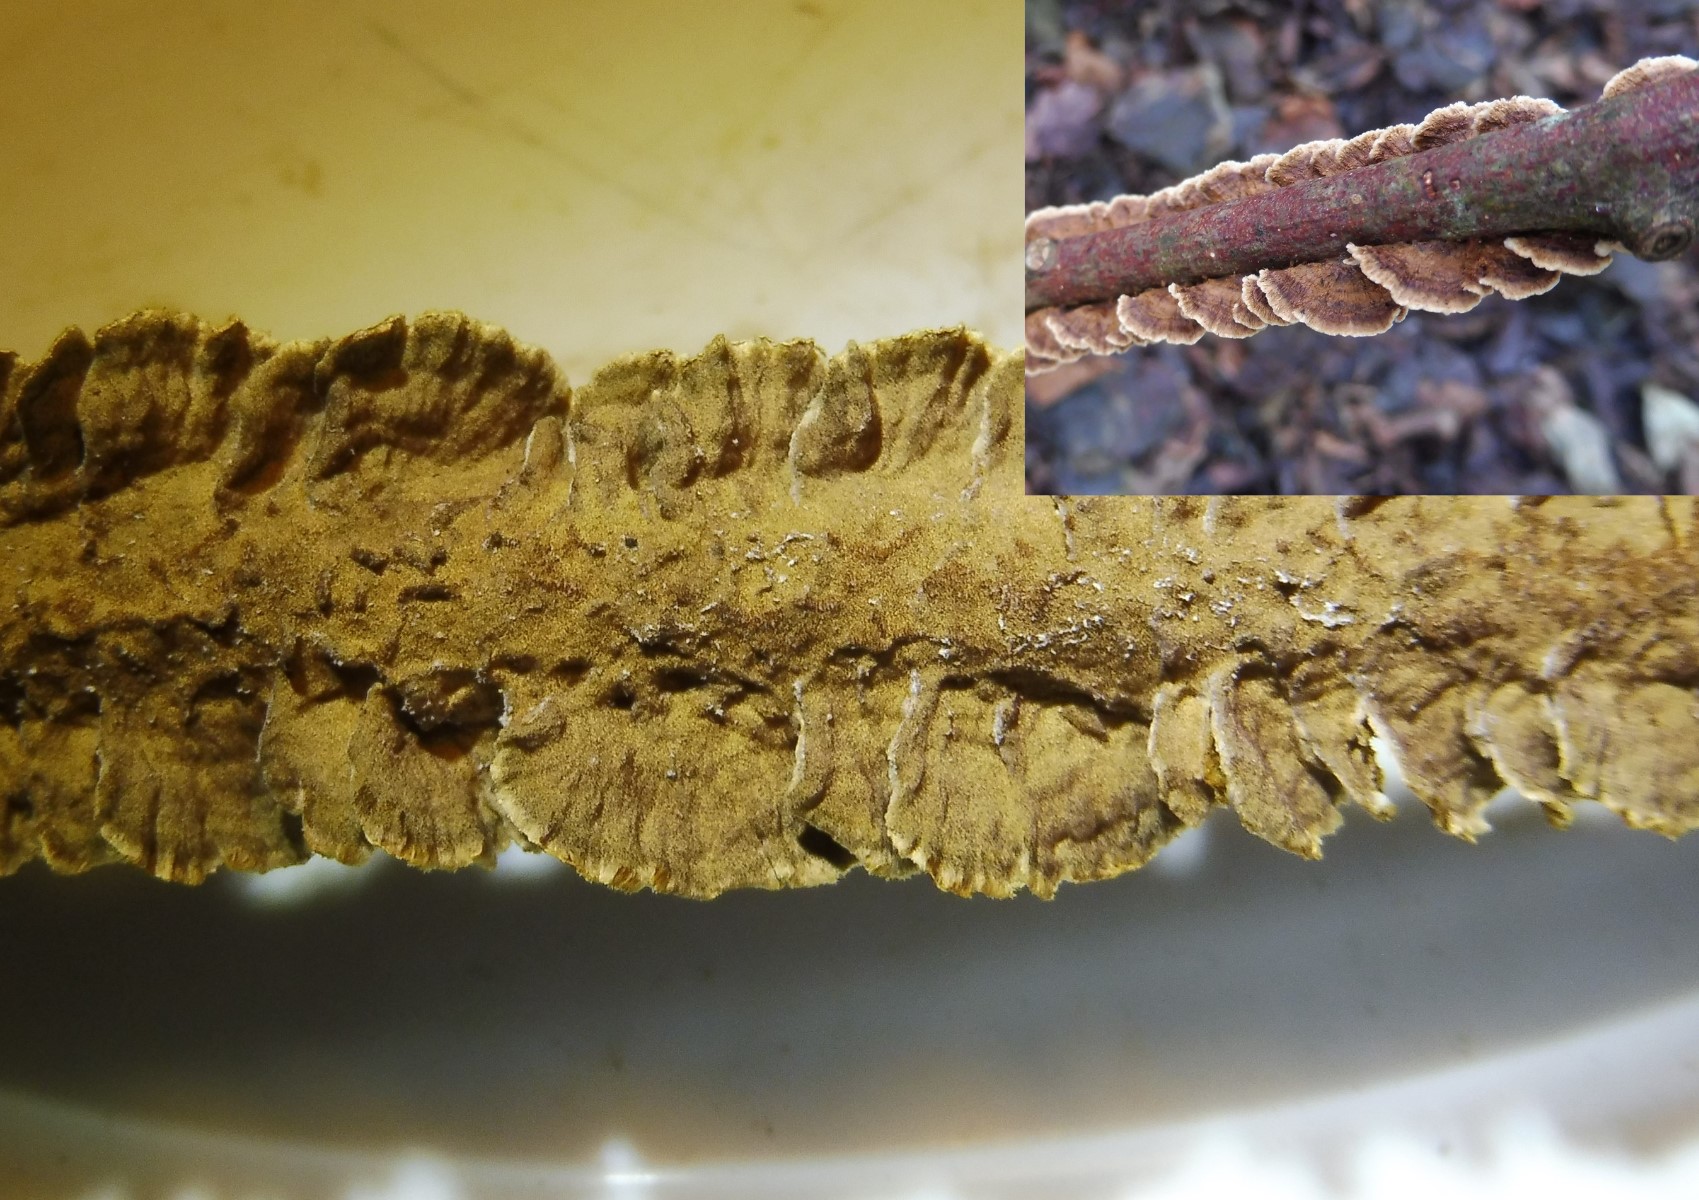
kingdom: Fungi
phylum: Basidiomycota
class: Agaricomycetes
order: Hymenochaetales
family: Hymenochaetaceae
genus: Hydnoporia
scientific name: Hydnoporia tabacina
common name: tobaksbrun ruslædersvamp
